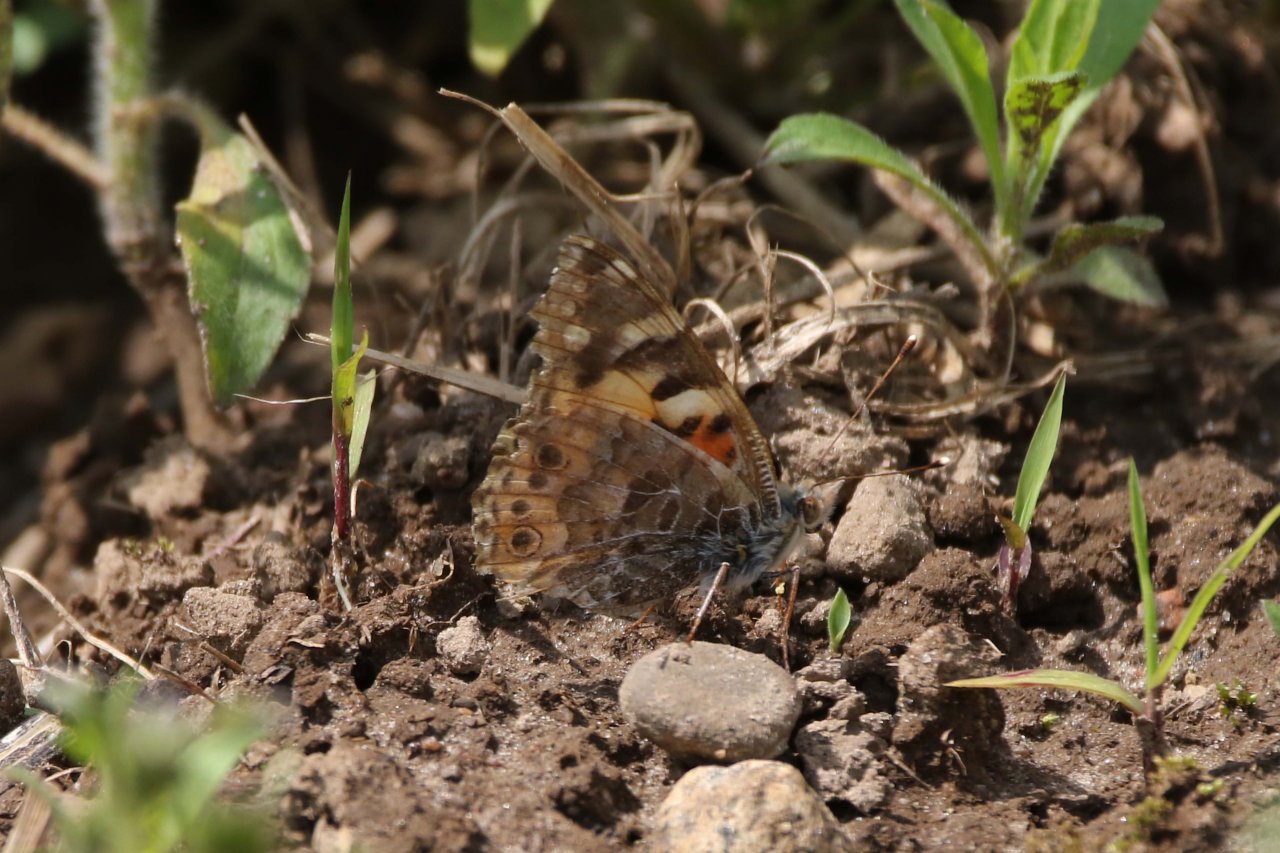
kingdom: Animalia
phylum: Arthropoda
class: Insecta
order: Lepidoptera
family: Nymphalidae
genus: Vanessa
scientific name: Vanessa cardui
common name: Painted Lady
